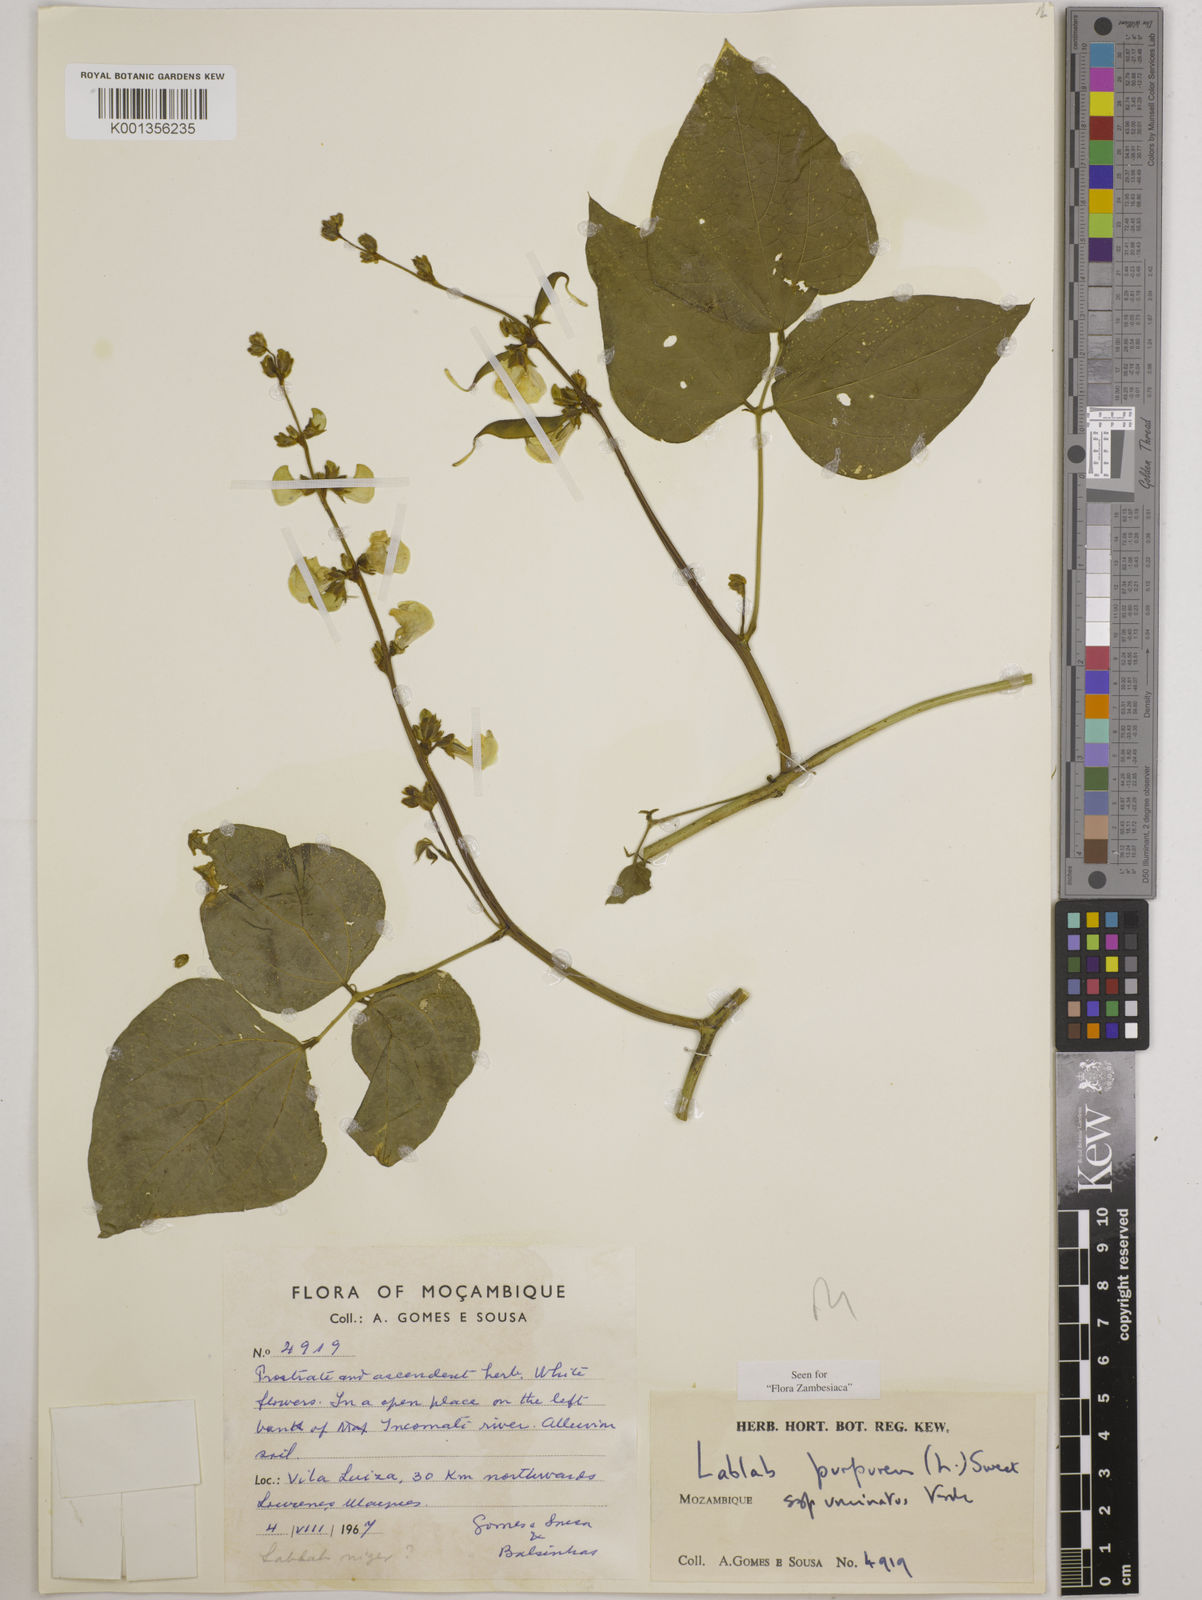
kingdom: Plantae
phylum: Tracheophyta
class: Magnoliopsida
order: Fabales
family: Fabaceae
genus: Lablab
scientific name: Lablab purpureus
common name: Lablab-bean
